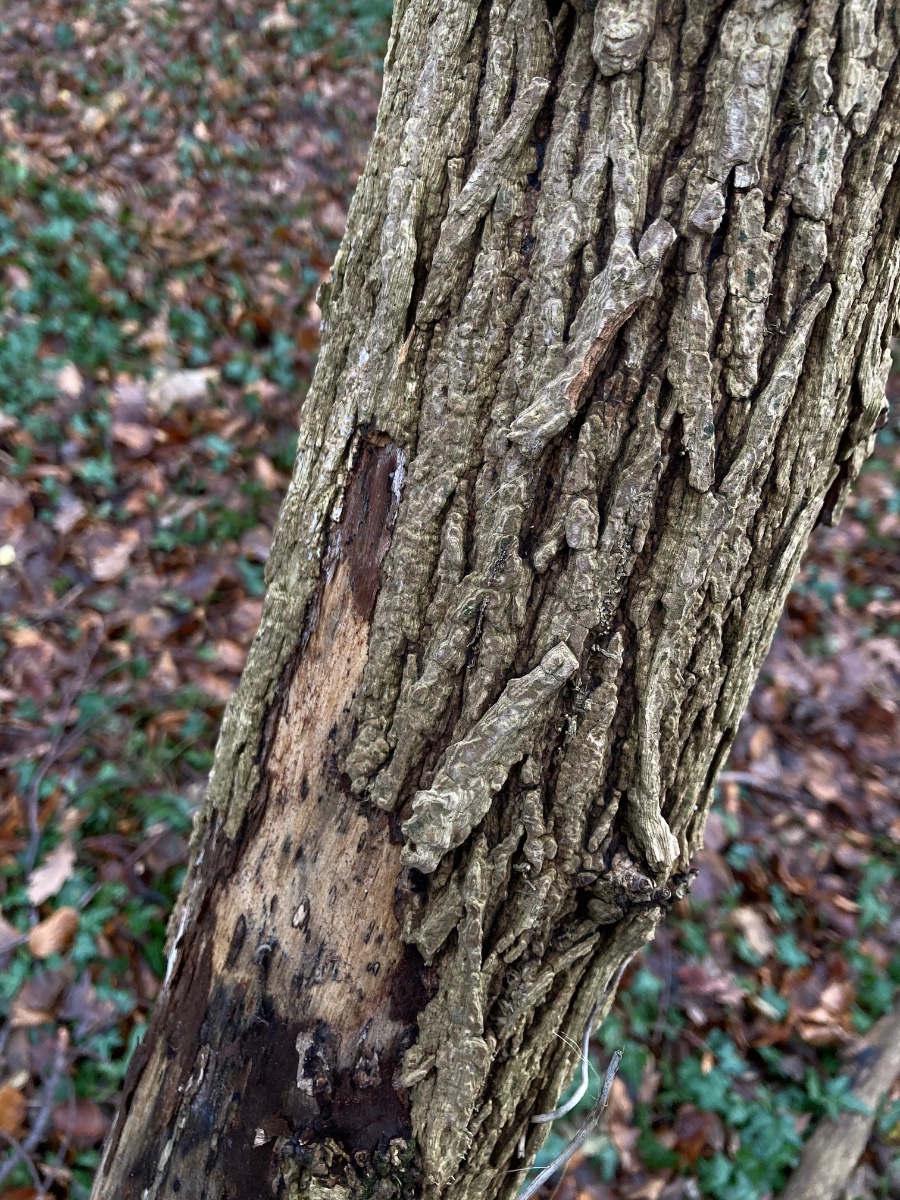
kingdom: Fungi
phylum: Ascomycota
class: Orbiliomycetes
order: Orbiliales
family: Orbiliaceae
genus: Orbilia
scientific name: Orbilia comma
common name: komma-voksskive
